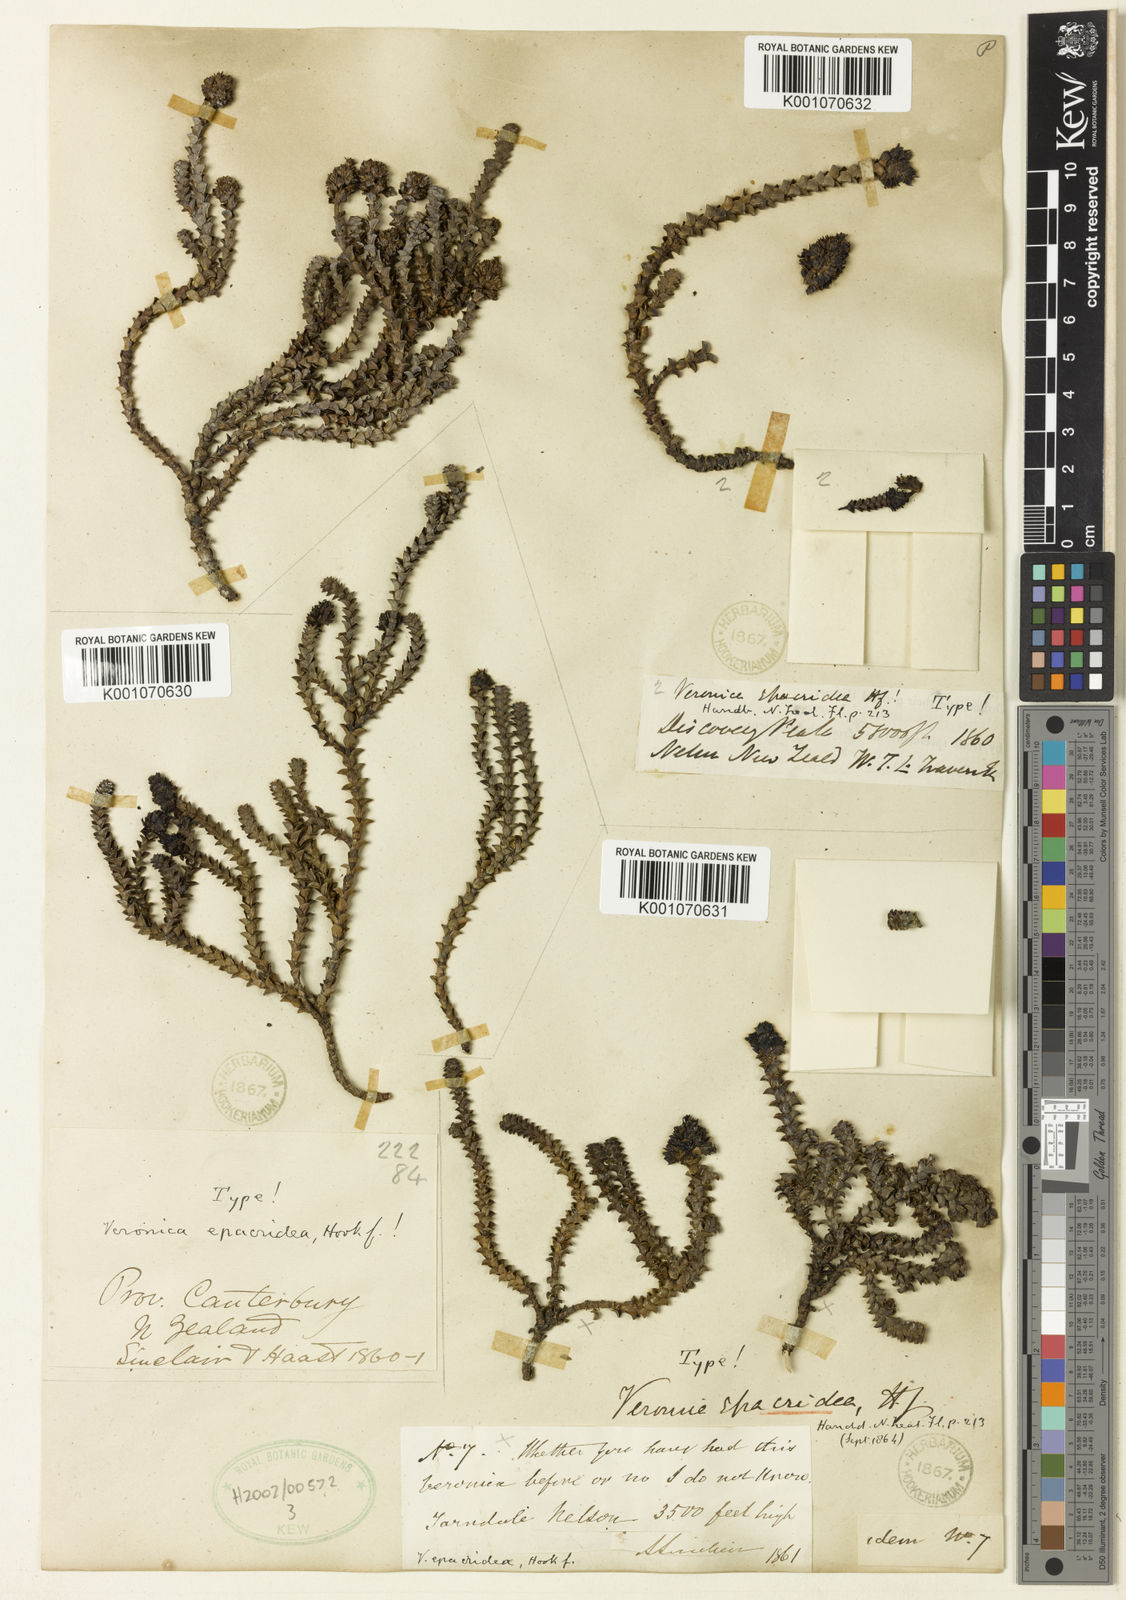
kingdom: Plantae
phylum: Tracheophyta
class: Magnoliopsida
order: Lamiales
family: Plantaginaceae
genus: Veronica
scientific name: Veronica epacridea
